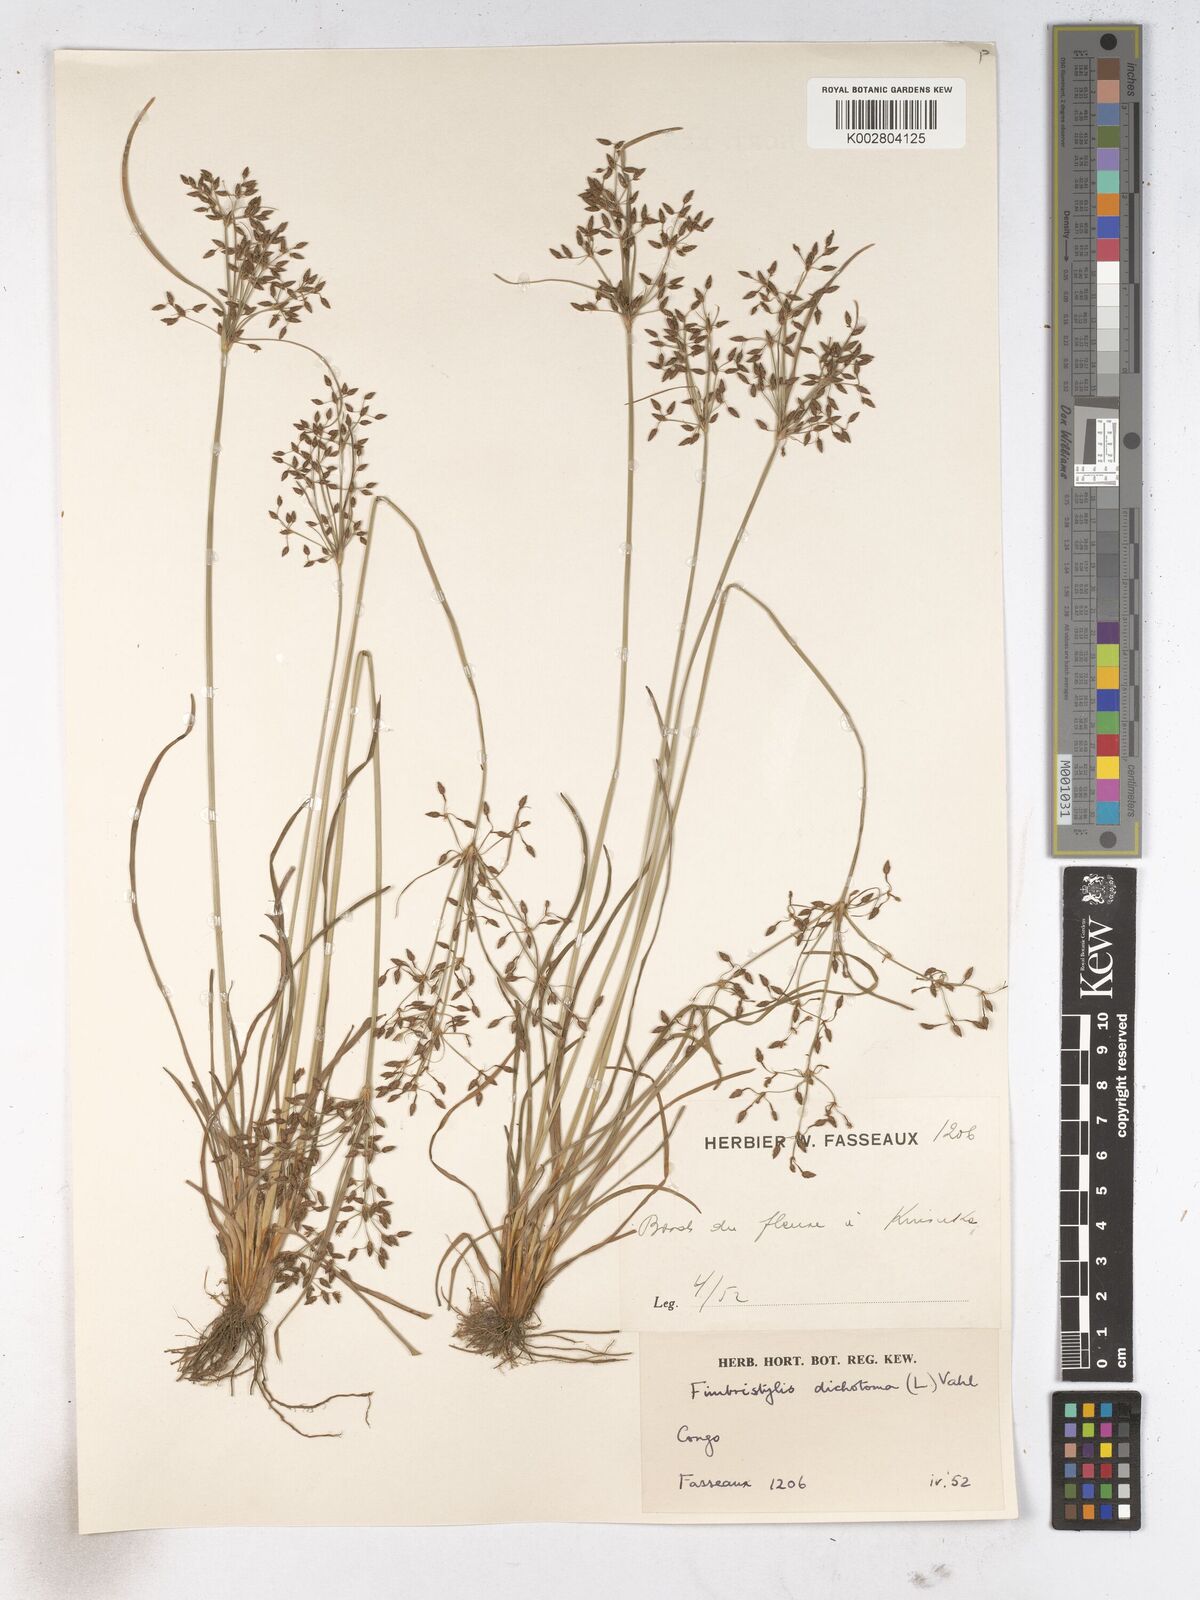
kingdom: Plantae
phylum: Tracheophyta
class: Liliopsida
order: Poales
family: Cyperaceae
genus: Fimbristylis
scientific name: Fimbristylis dichotoma
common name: Forked fimbry
